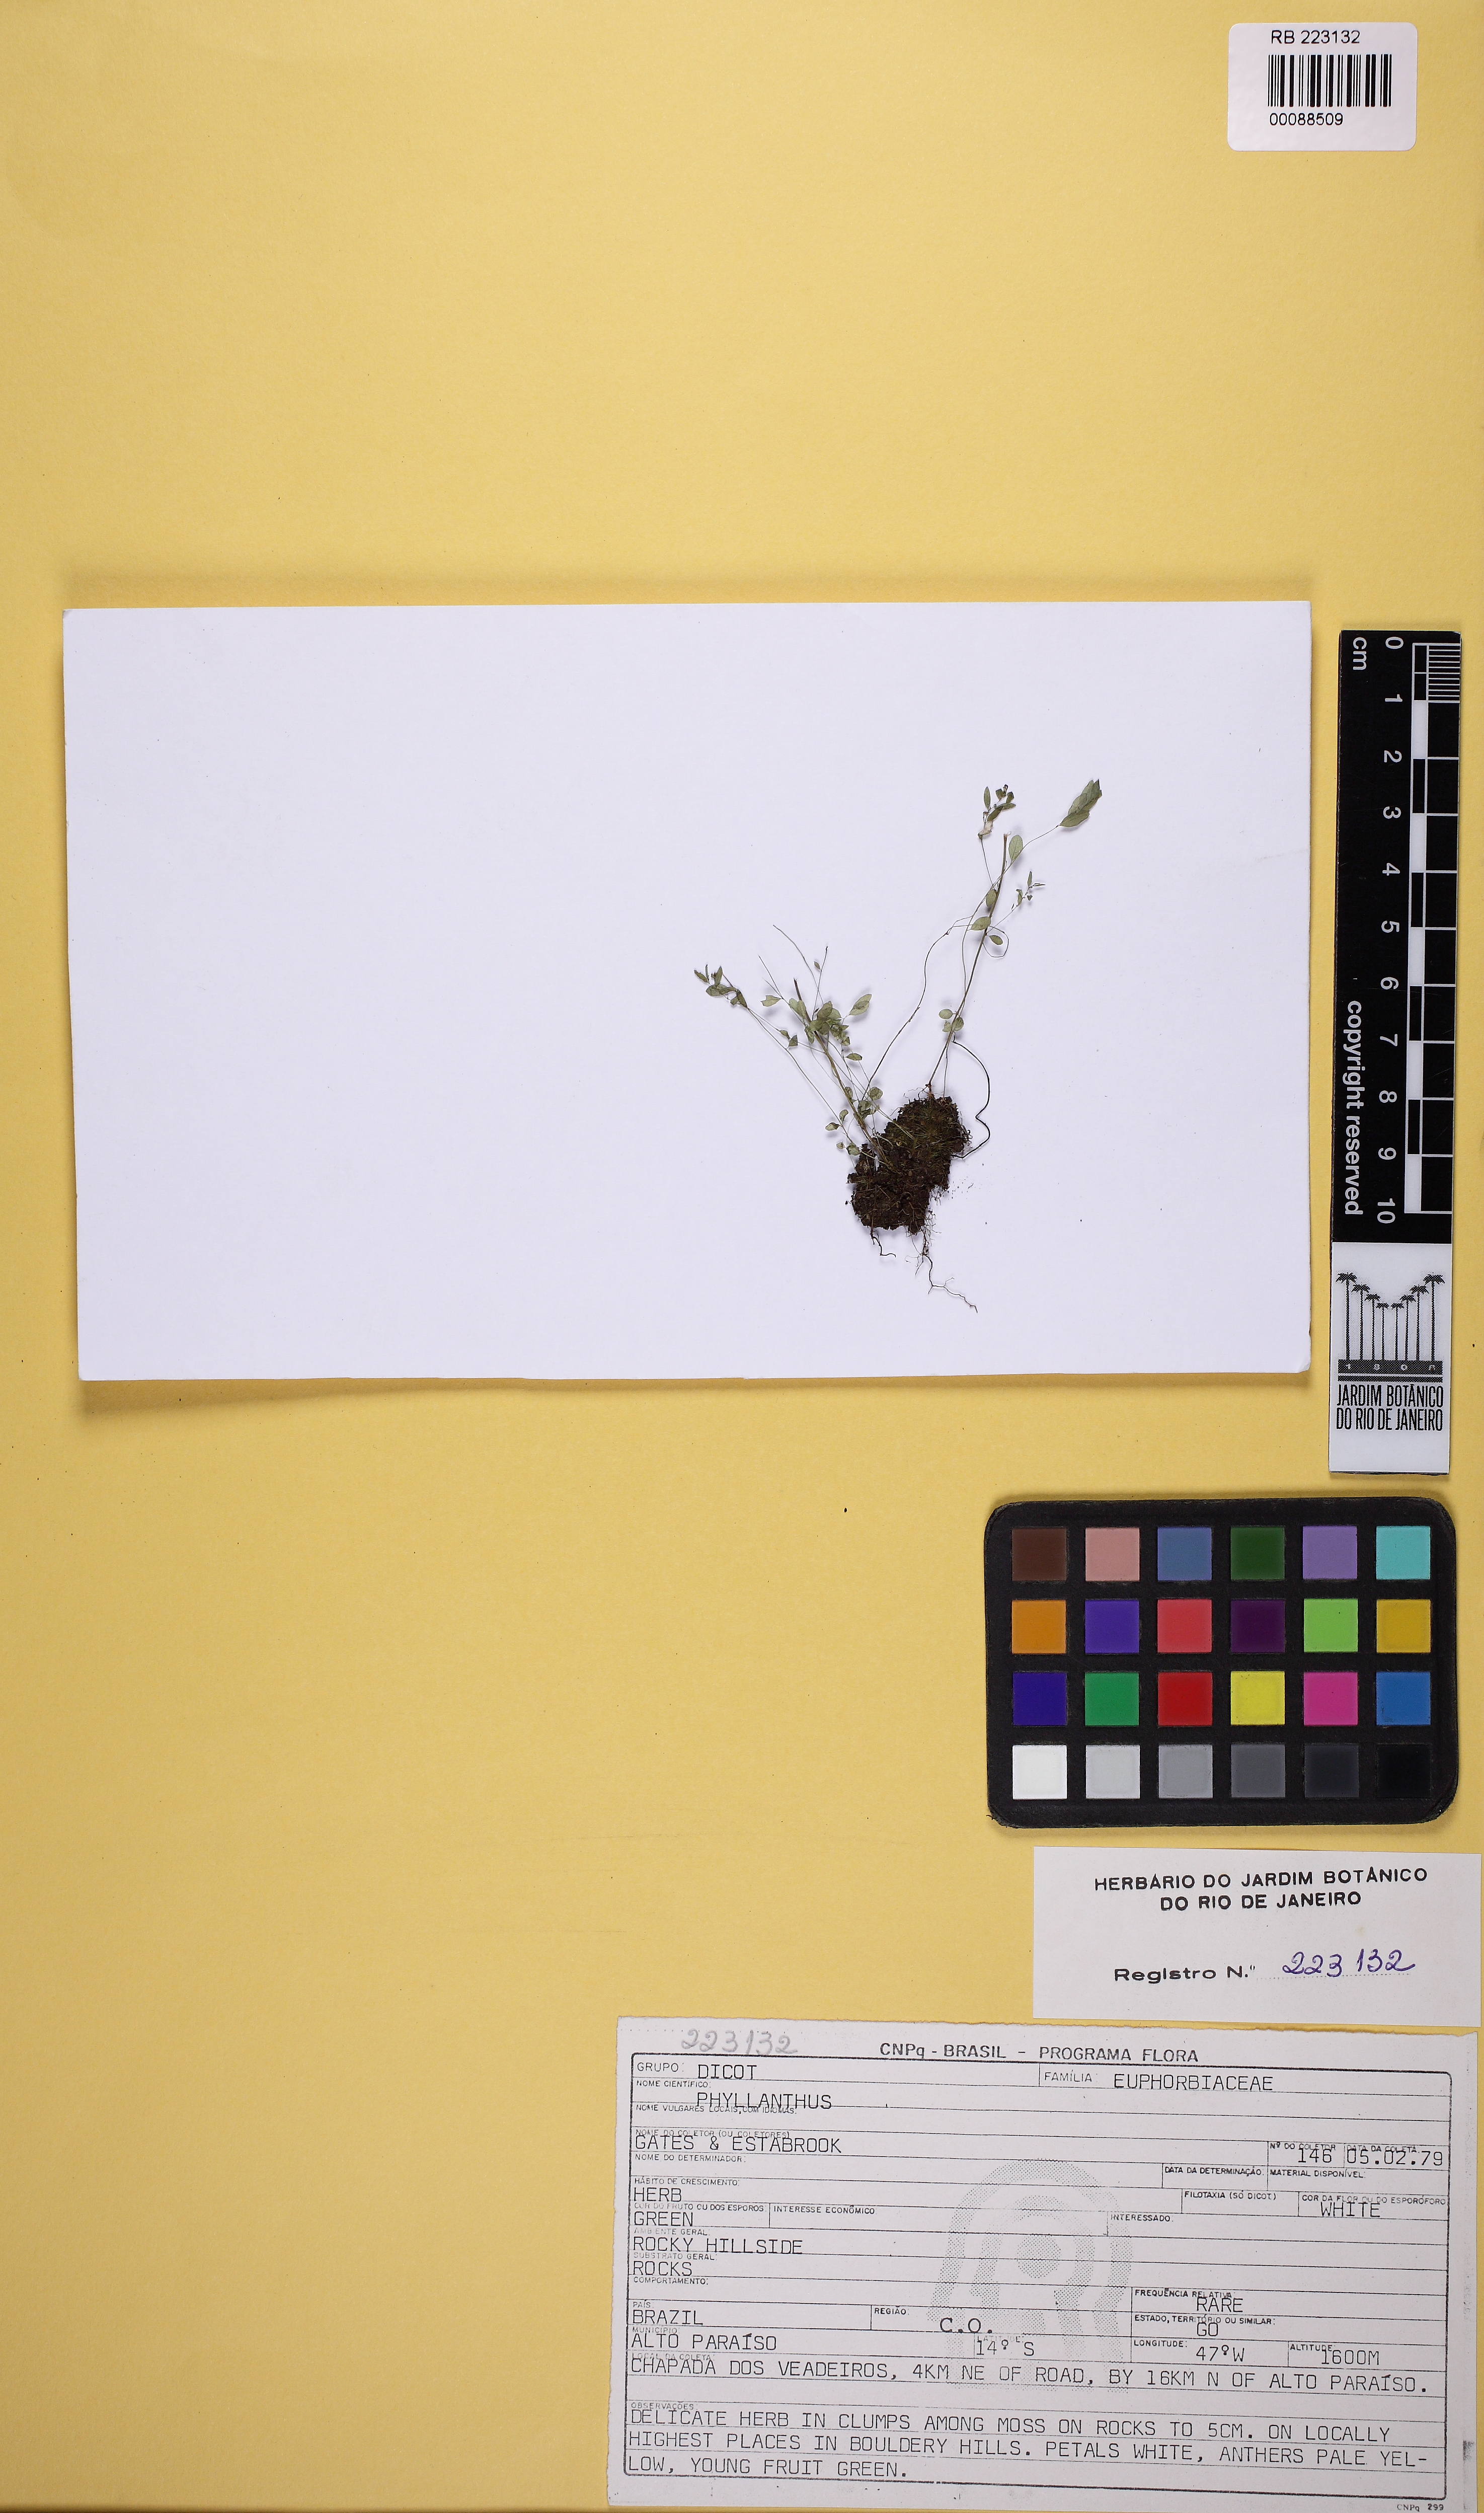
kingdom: Plantae
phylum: Tracheophyta
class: Magnoliopsida
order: Malpighiales
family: Phyllanthaceae
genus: Phyllanthus
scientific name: Phyllanthus minutulus
